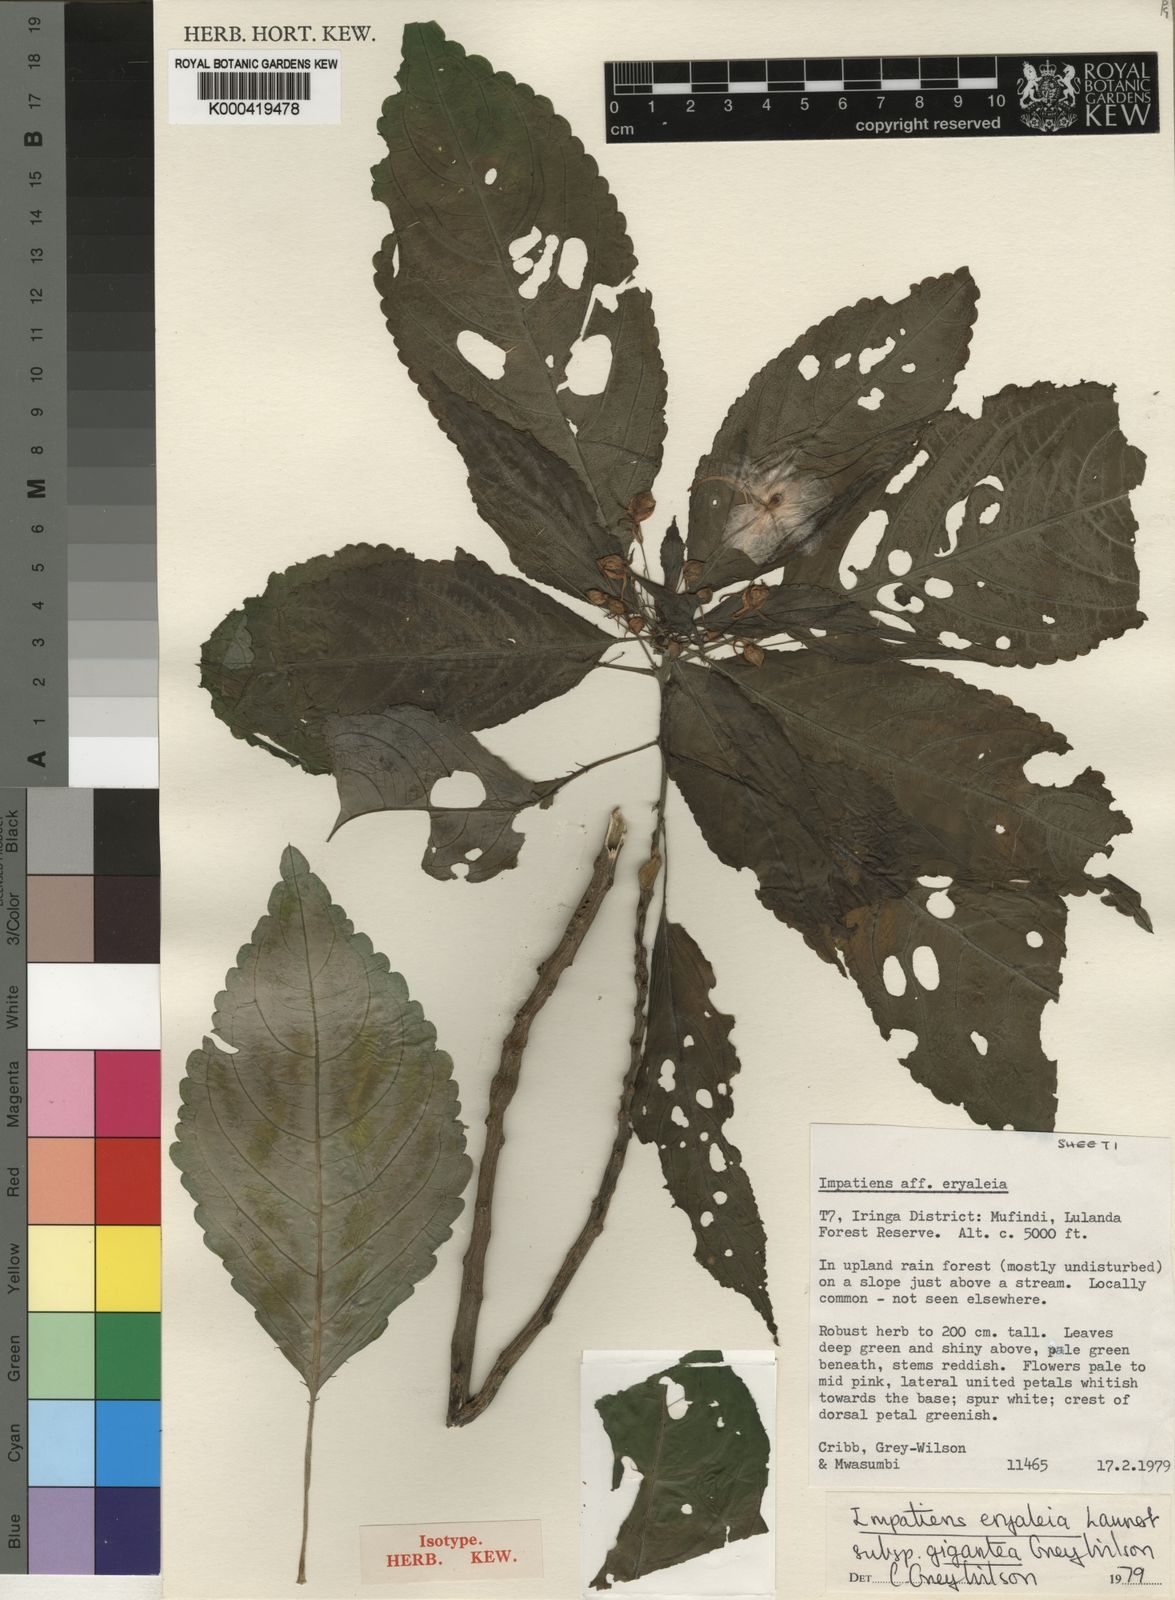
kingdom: Plantae
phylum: Tracheophyta
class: Magnoliopsida
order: Ericales
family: Balsaminaceae
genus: Impatiens
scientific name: Impatiens eryaleia
